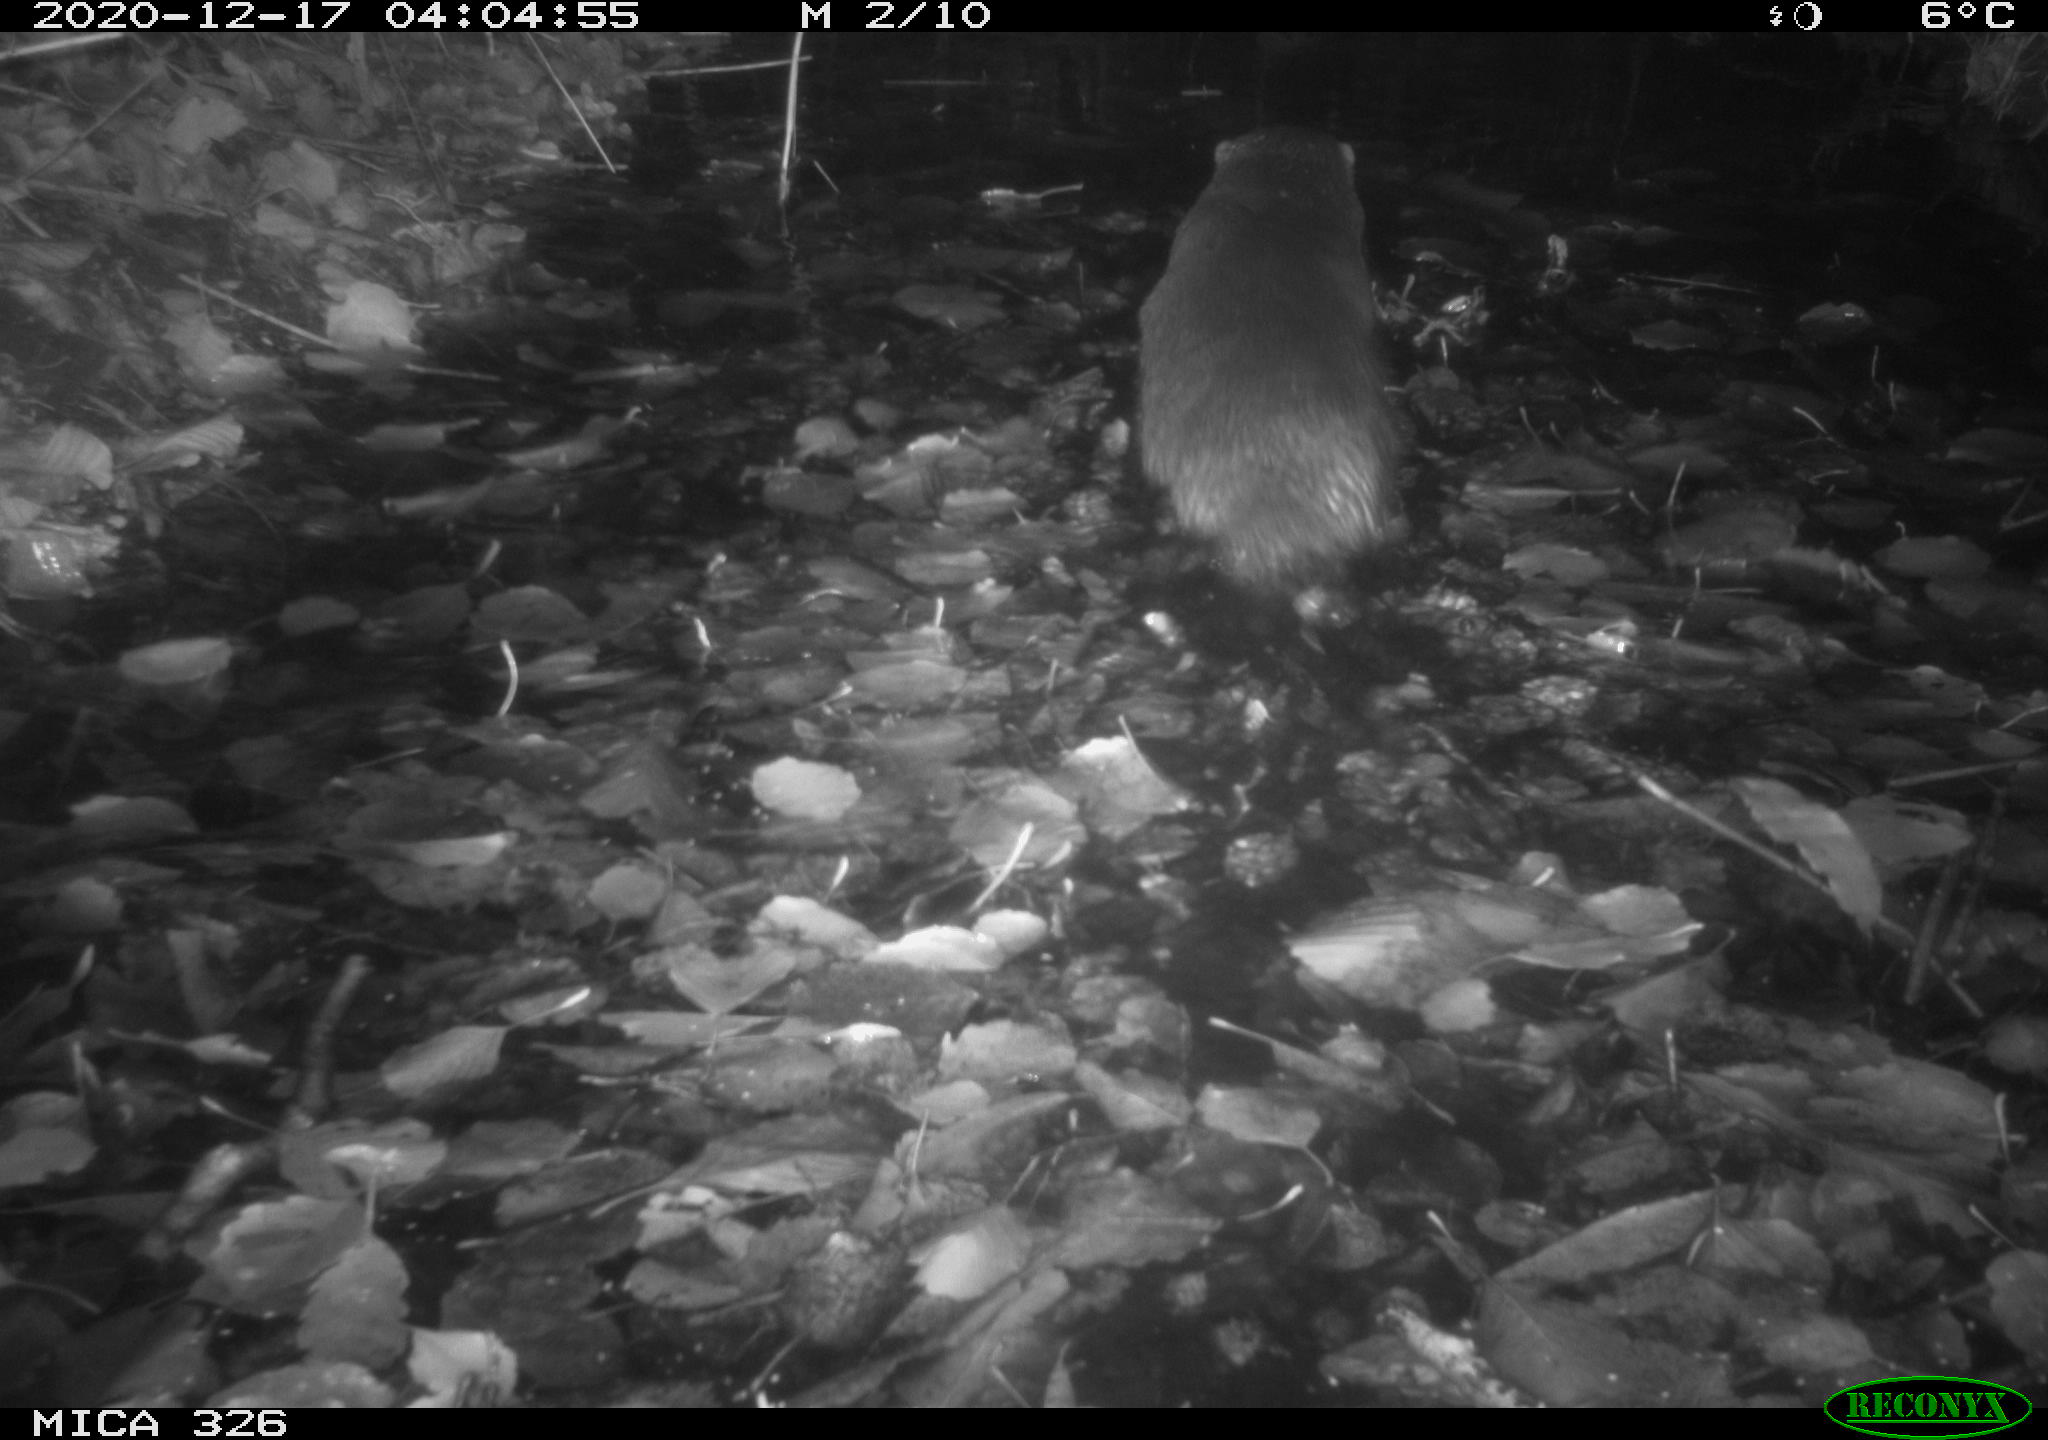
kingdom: Animalia
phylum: Chordata
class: Mammalia
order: Carnivora
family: Mustelidae
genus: Lutra
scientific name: Lutra lutra
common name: European otter
